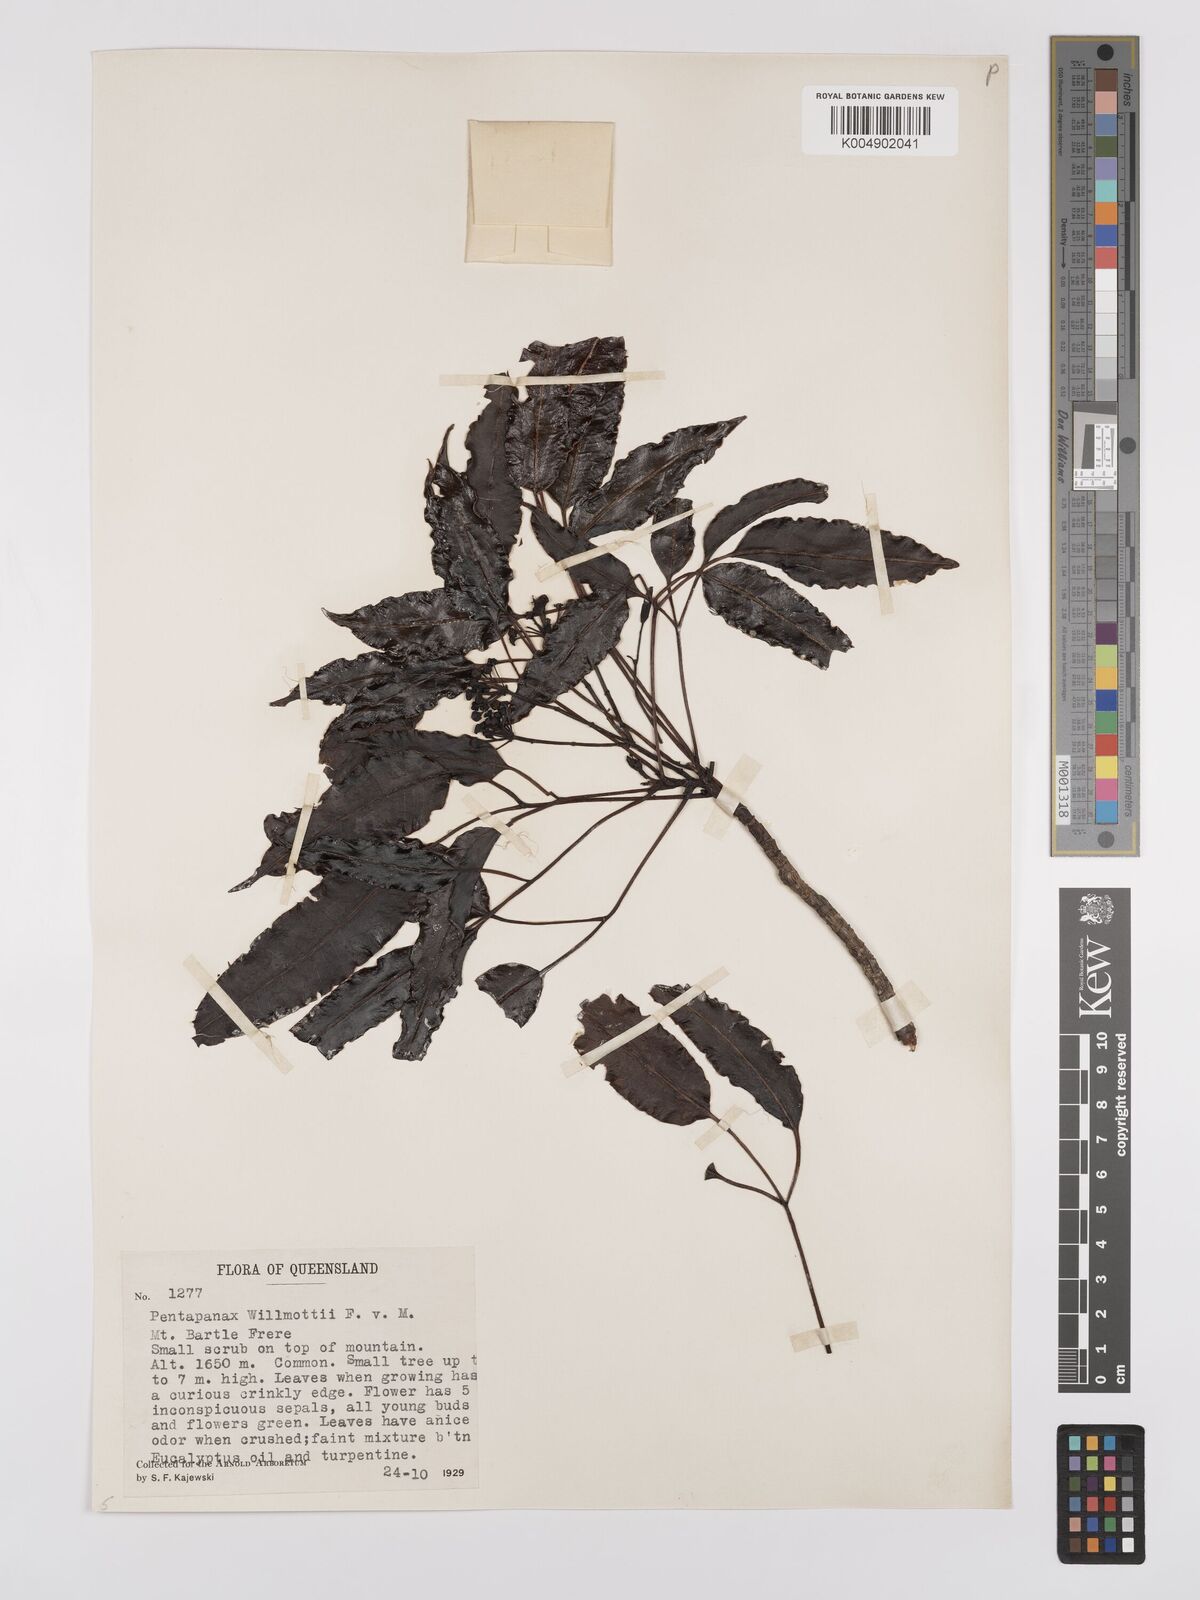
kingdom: Plantae
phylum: Tracheophyta
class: Magnoliopsida
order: Apiales
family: Araliaceae
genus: Polyscias
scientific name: Polyscias willmottii
